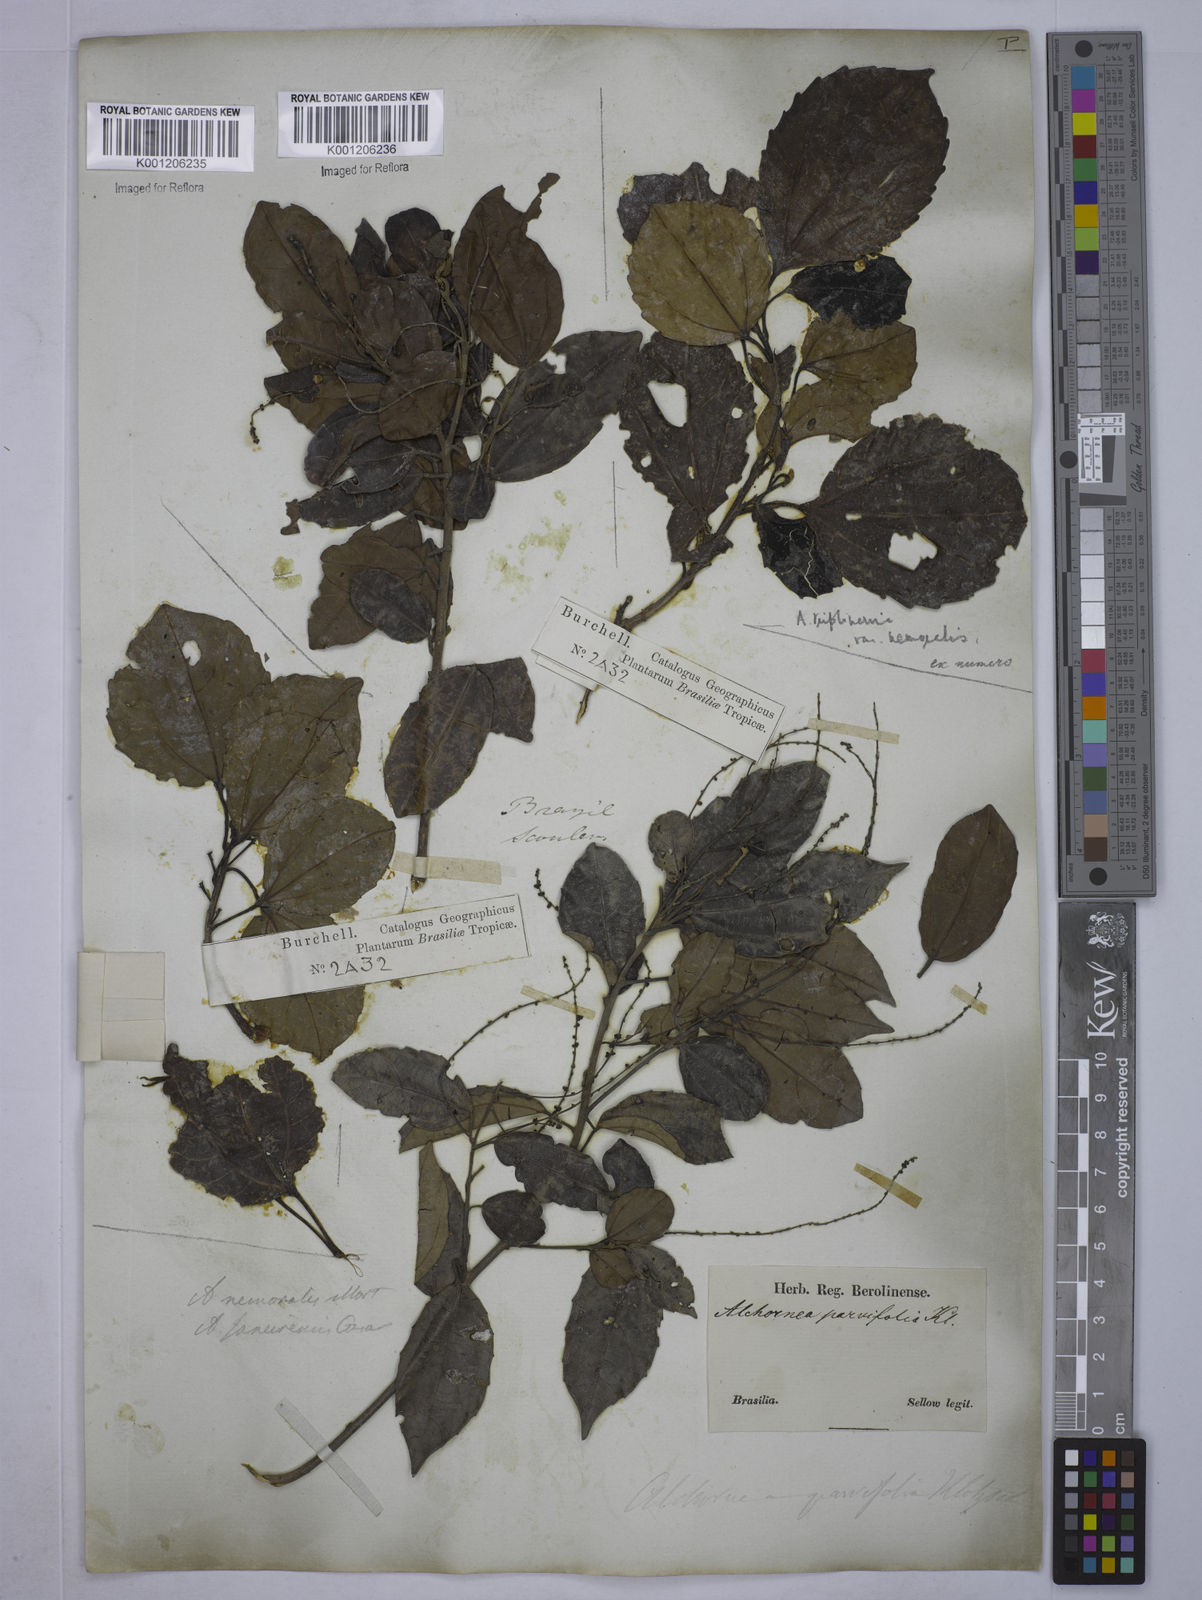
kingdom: Plantae
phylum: Tracheophyta
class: Magnoliopsida
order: Malpighiales
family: Euphorbiaceae
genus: Alchornea
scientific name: Alchornea triplinervia
